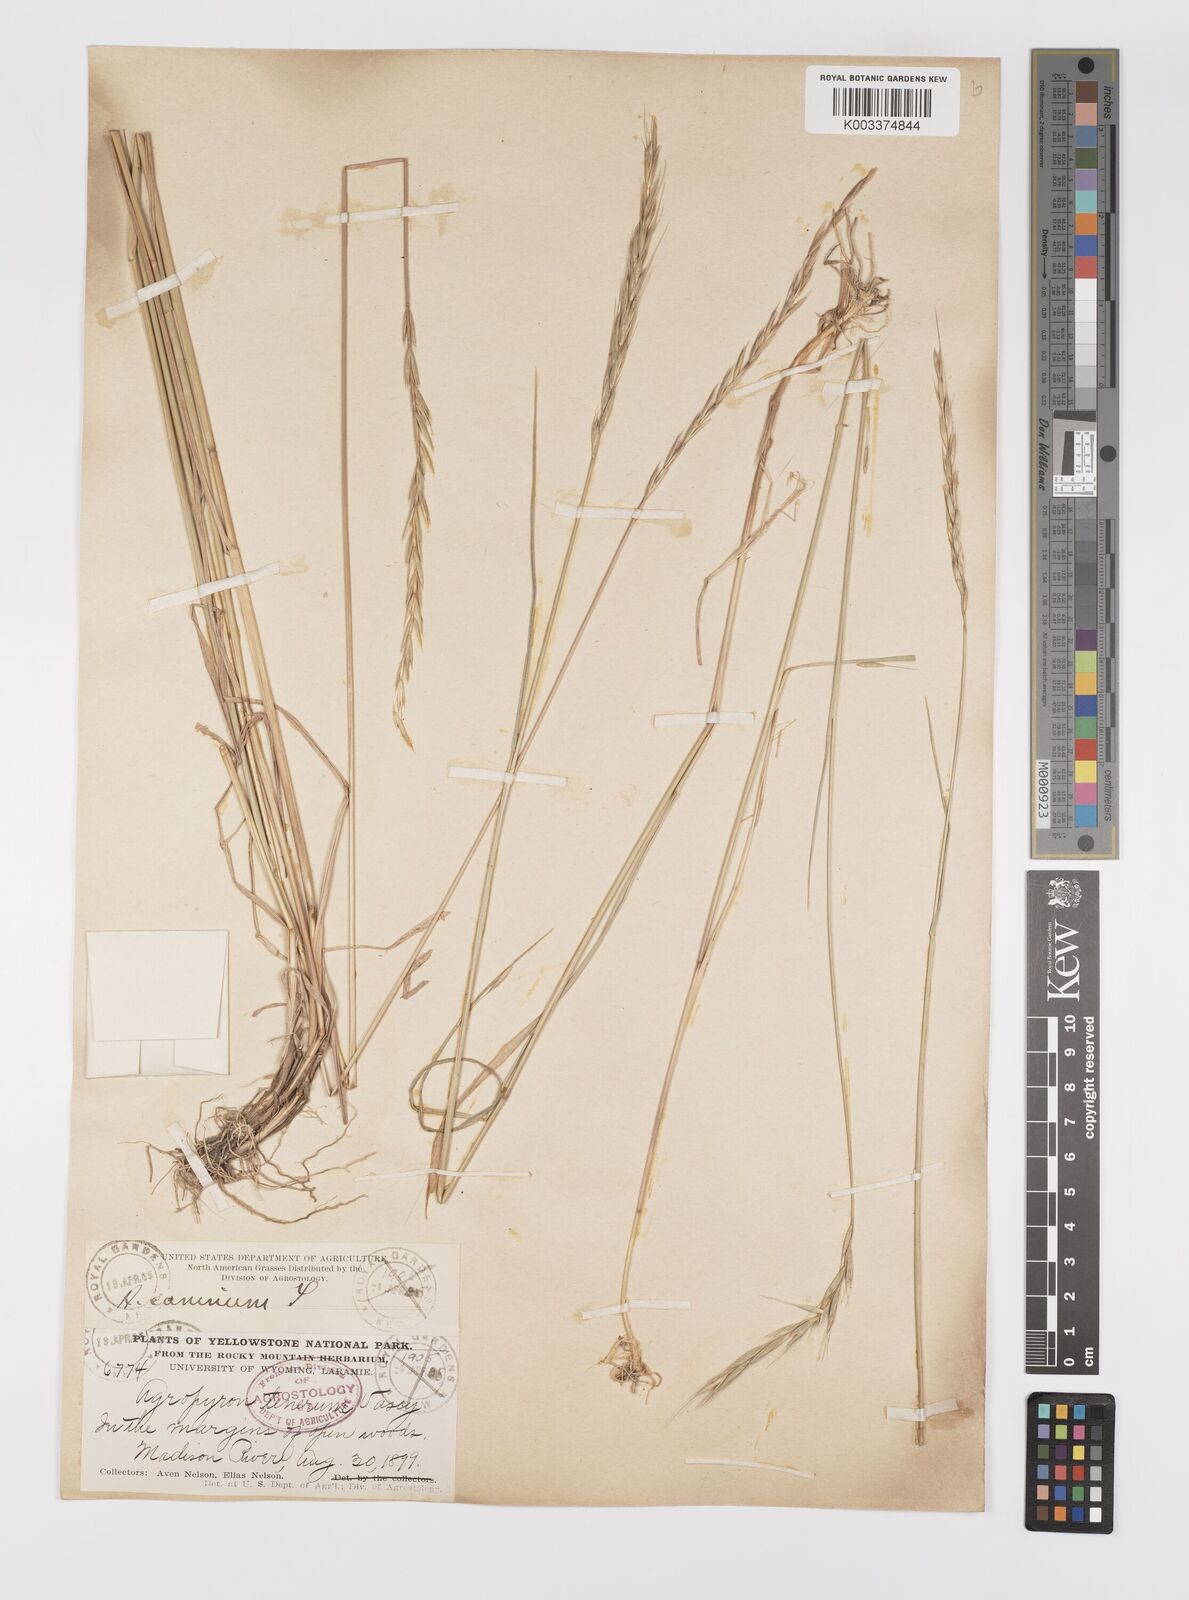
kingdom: Plantae
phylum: Tracheophyta
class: Liliopsida
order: Poales
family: Poaceae
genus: Elymus
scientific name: Elymus violaceus
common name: Arctic wheatgrass
